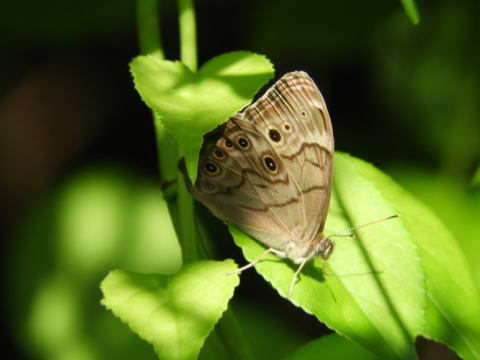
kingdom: Animalia
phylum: Arthropoda
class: Insecta
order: Lepidoptera
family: Nymphalidae
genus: Lethe
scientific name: Lethe anthedon
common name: Northern Pearly-Eye
